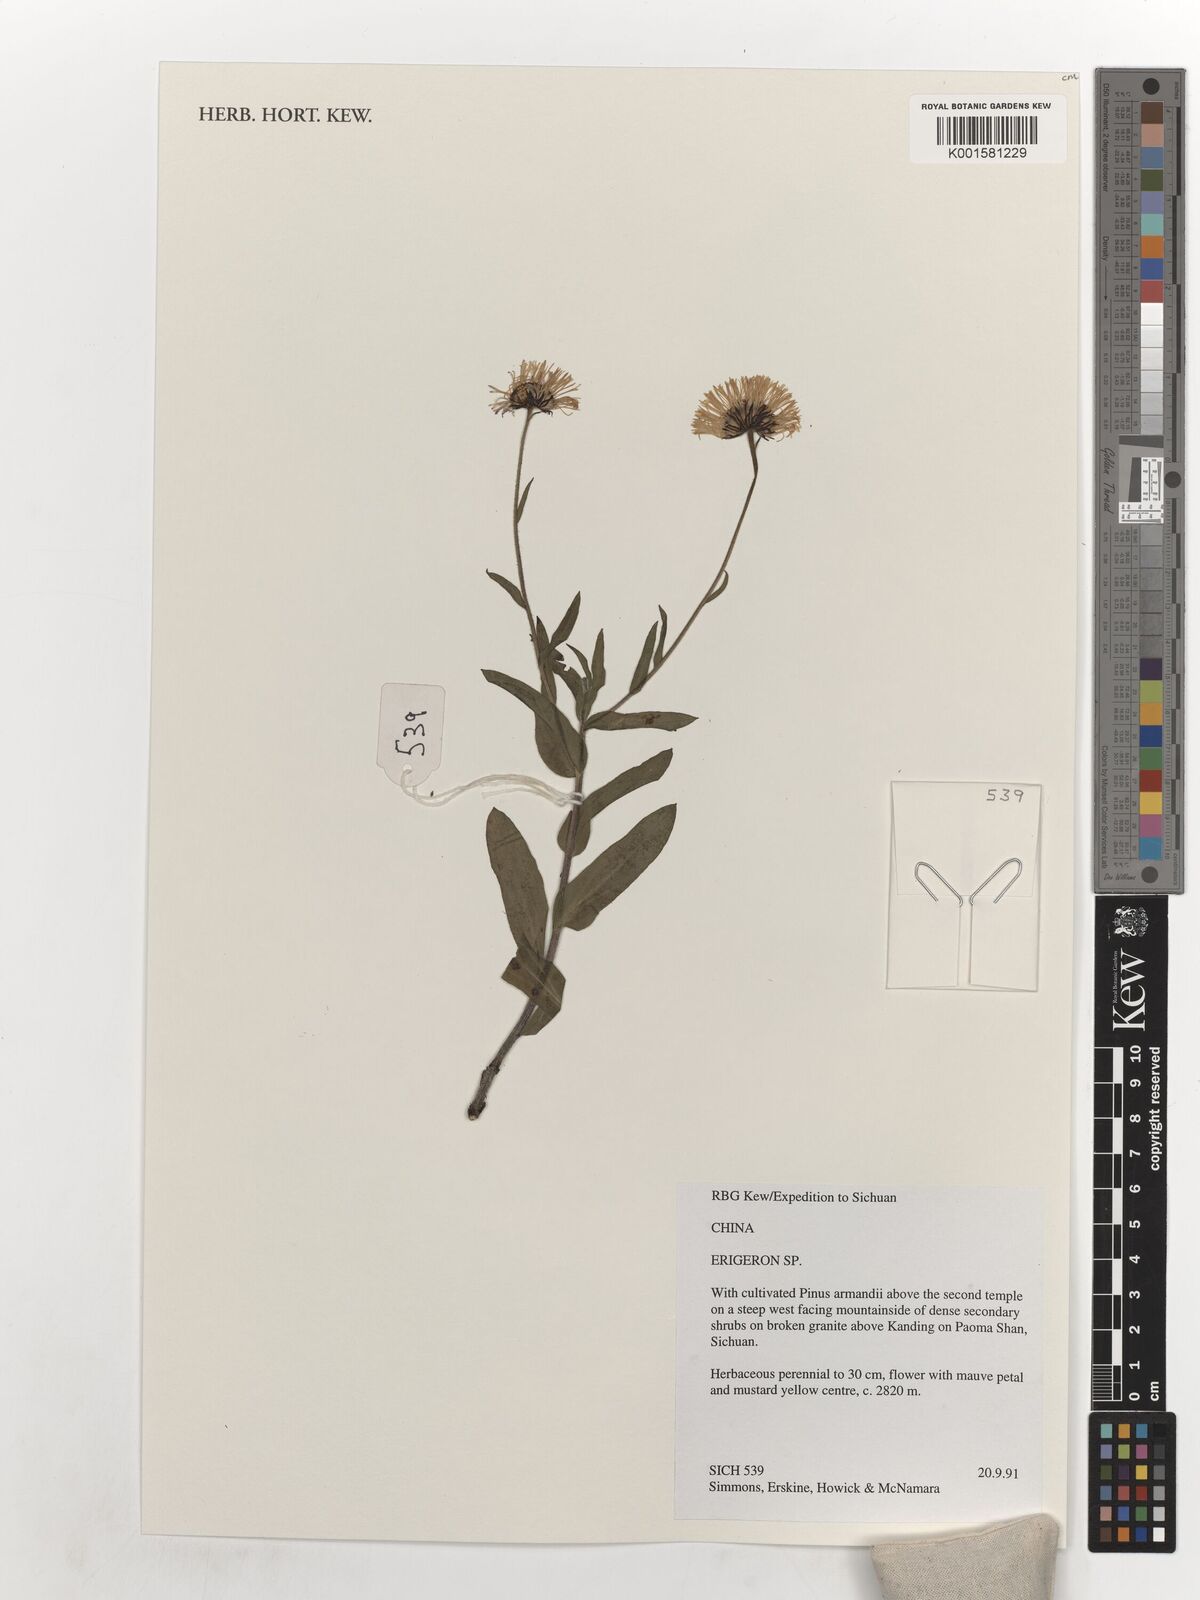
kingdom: Plantae
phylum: Tracheophyta
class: Magnoliopsida
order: Asterales
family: Asteraceae
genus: Erigeron
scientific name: Erigeron
